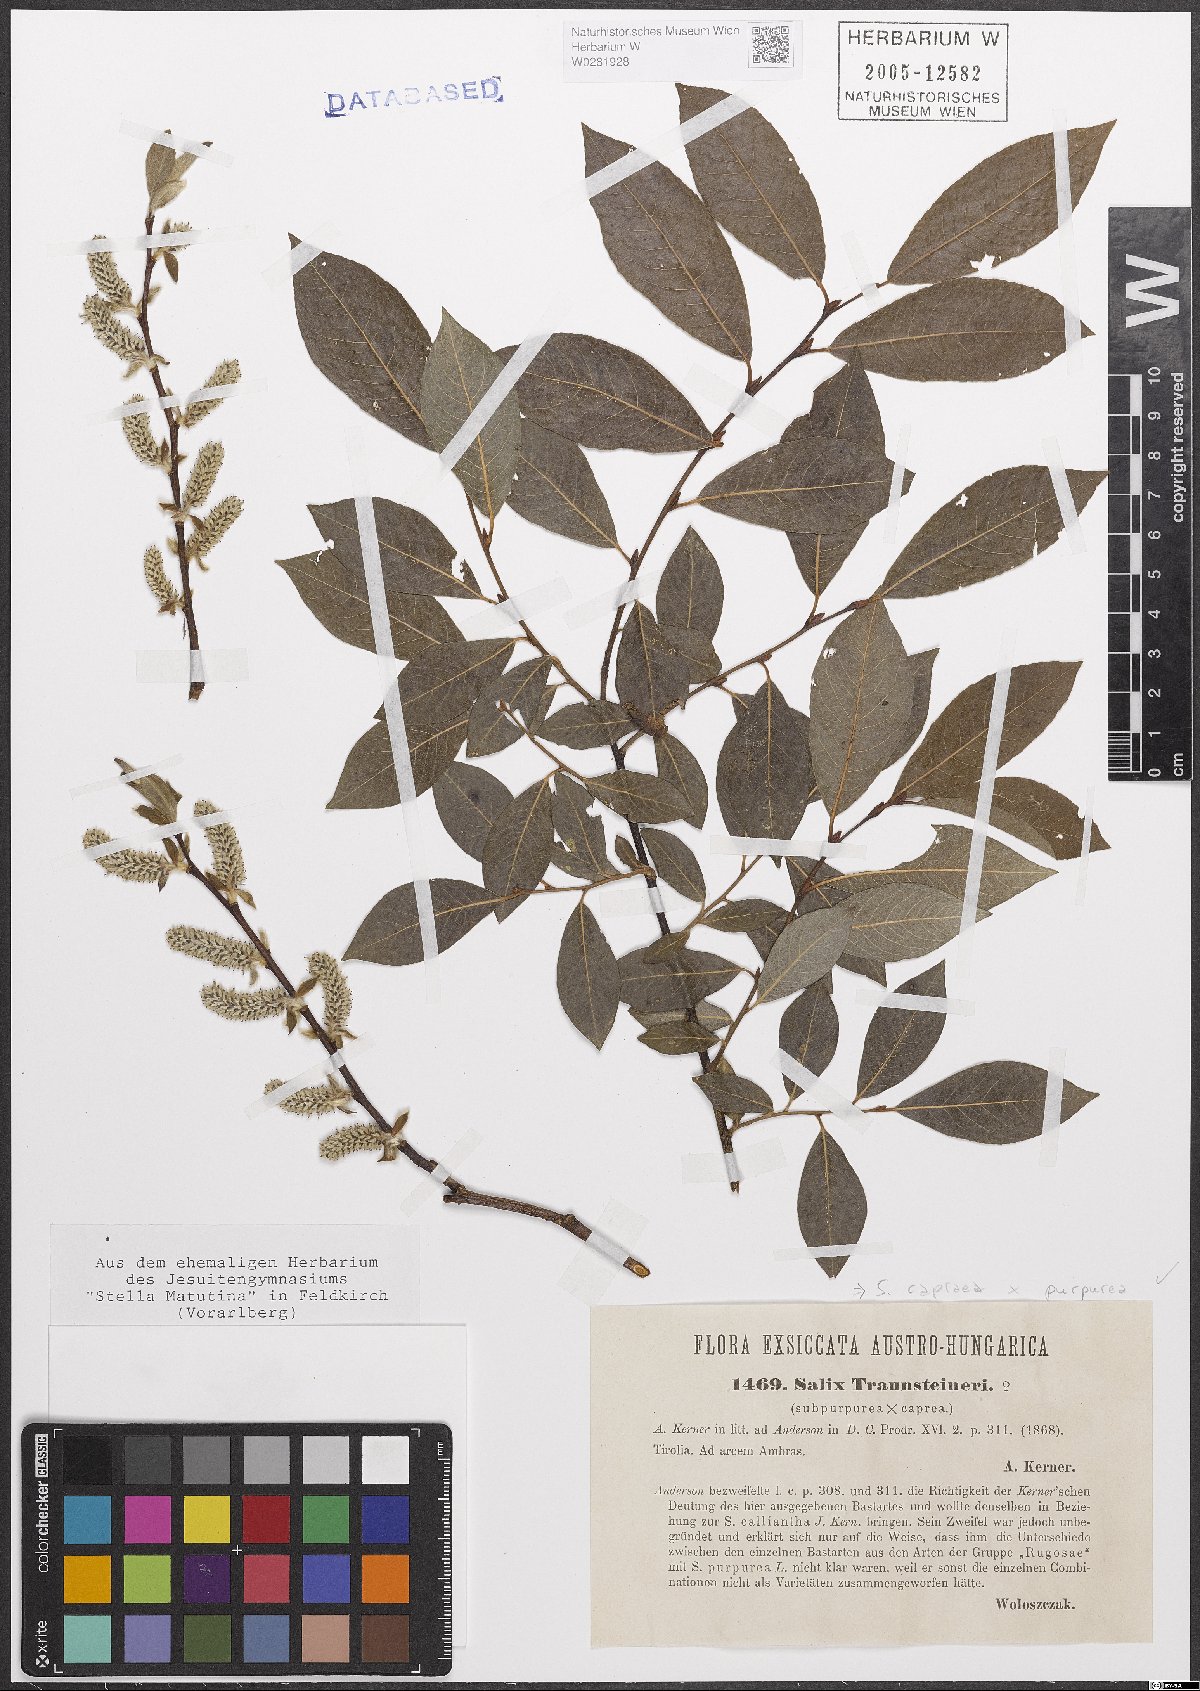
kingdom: Plantae
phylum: Tracheophyta
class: Magnoliopsida
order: Malpighiales
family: Salicaceae
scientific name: Salicaceae
